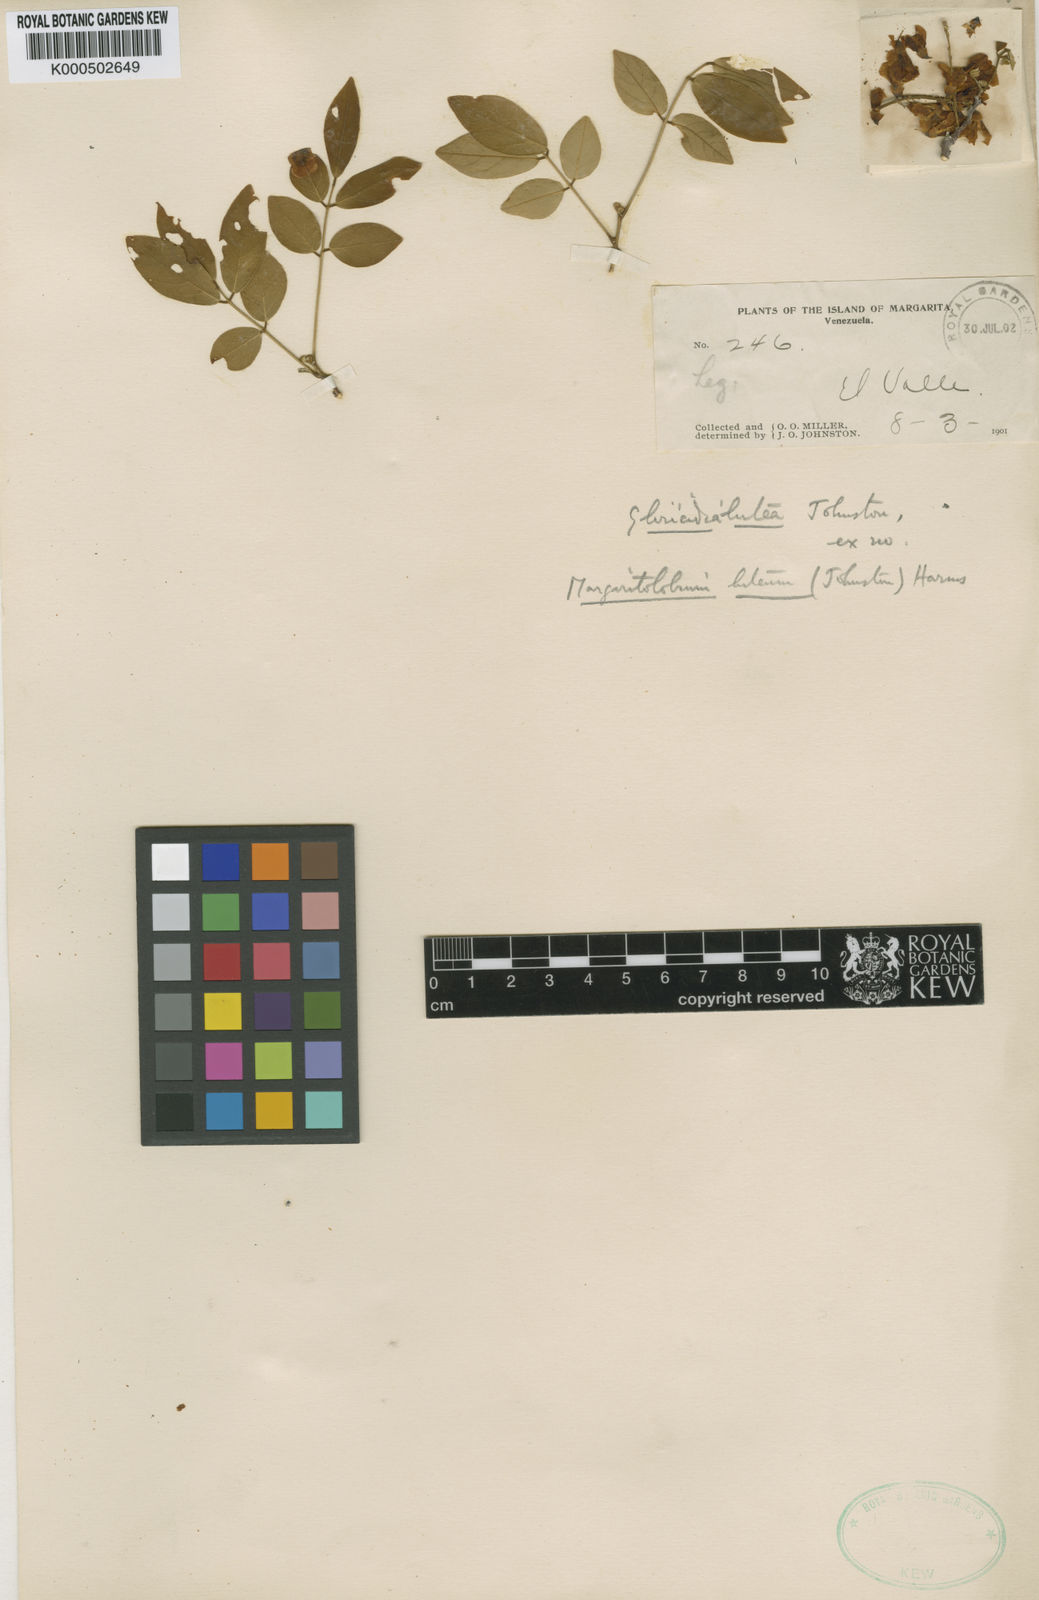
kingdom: Plantae
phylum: Tracheophyta
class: Magnoliopsida
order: Fabales
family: Fabaceae
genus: Muellera
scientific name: Muellera lutea
